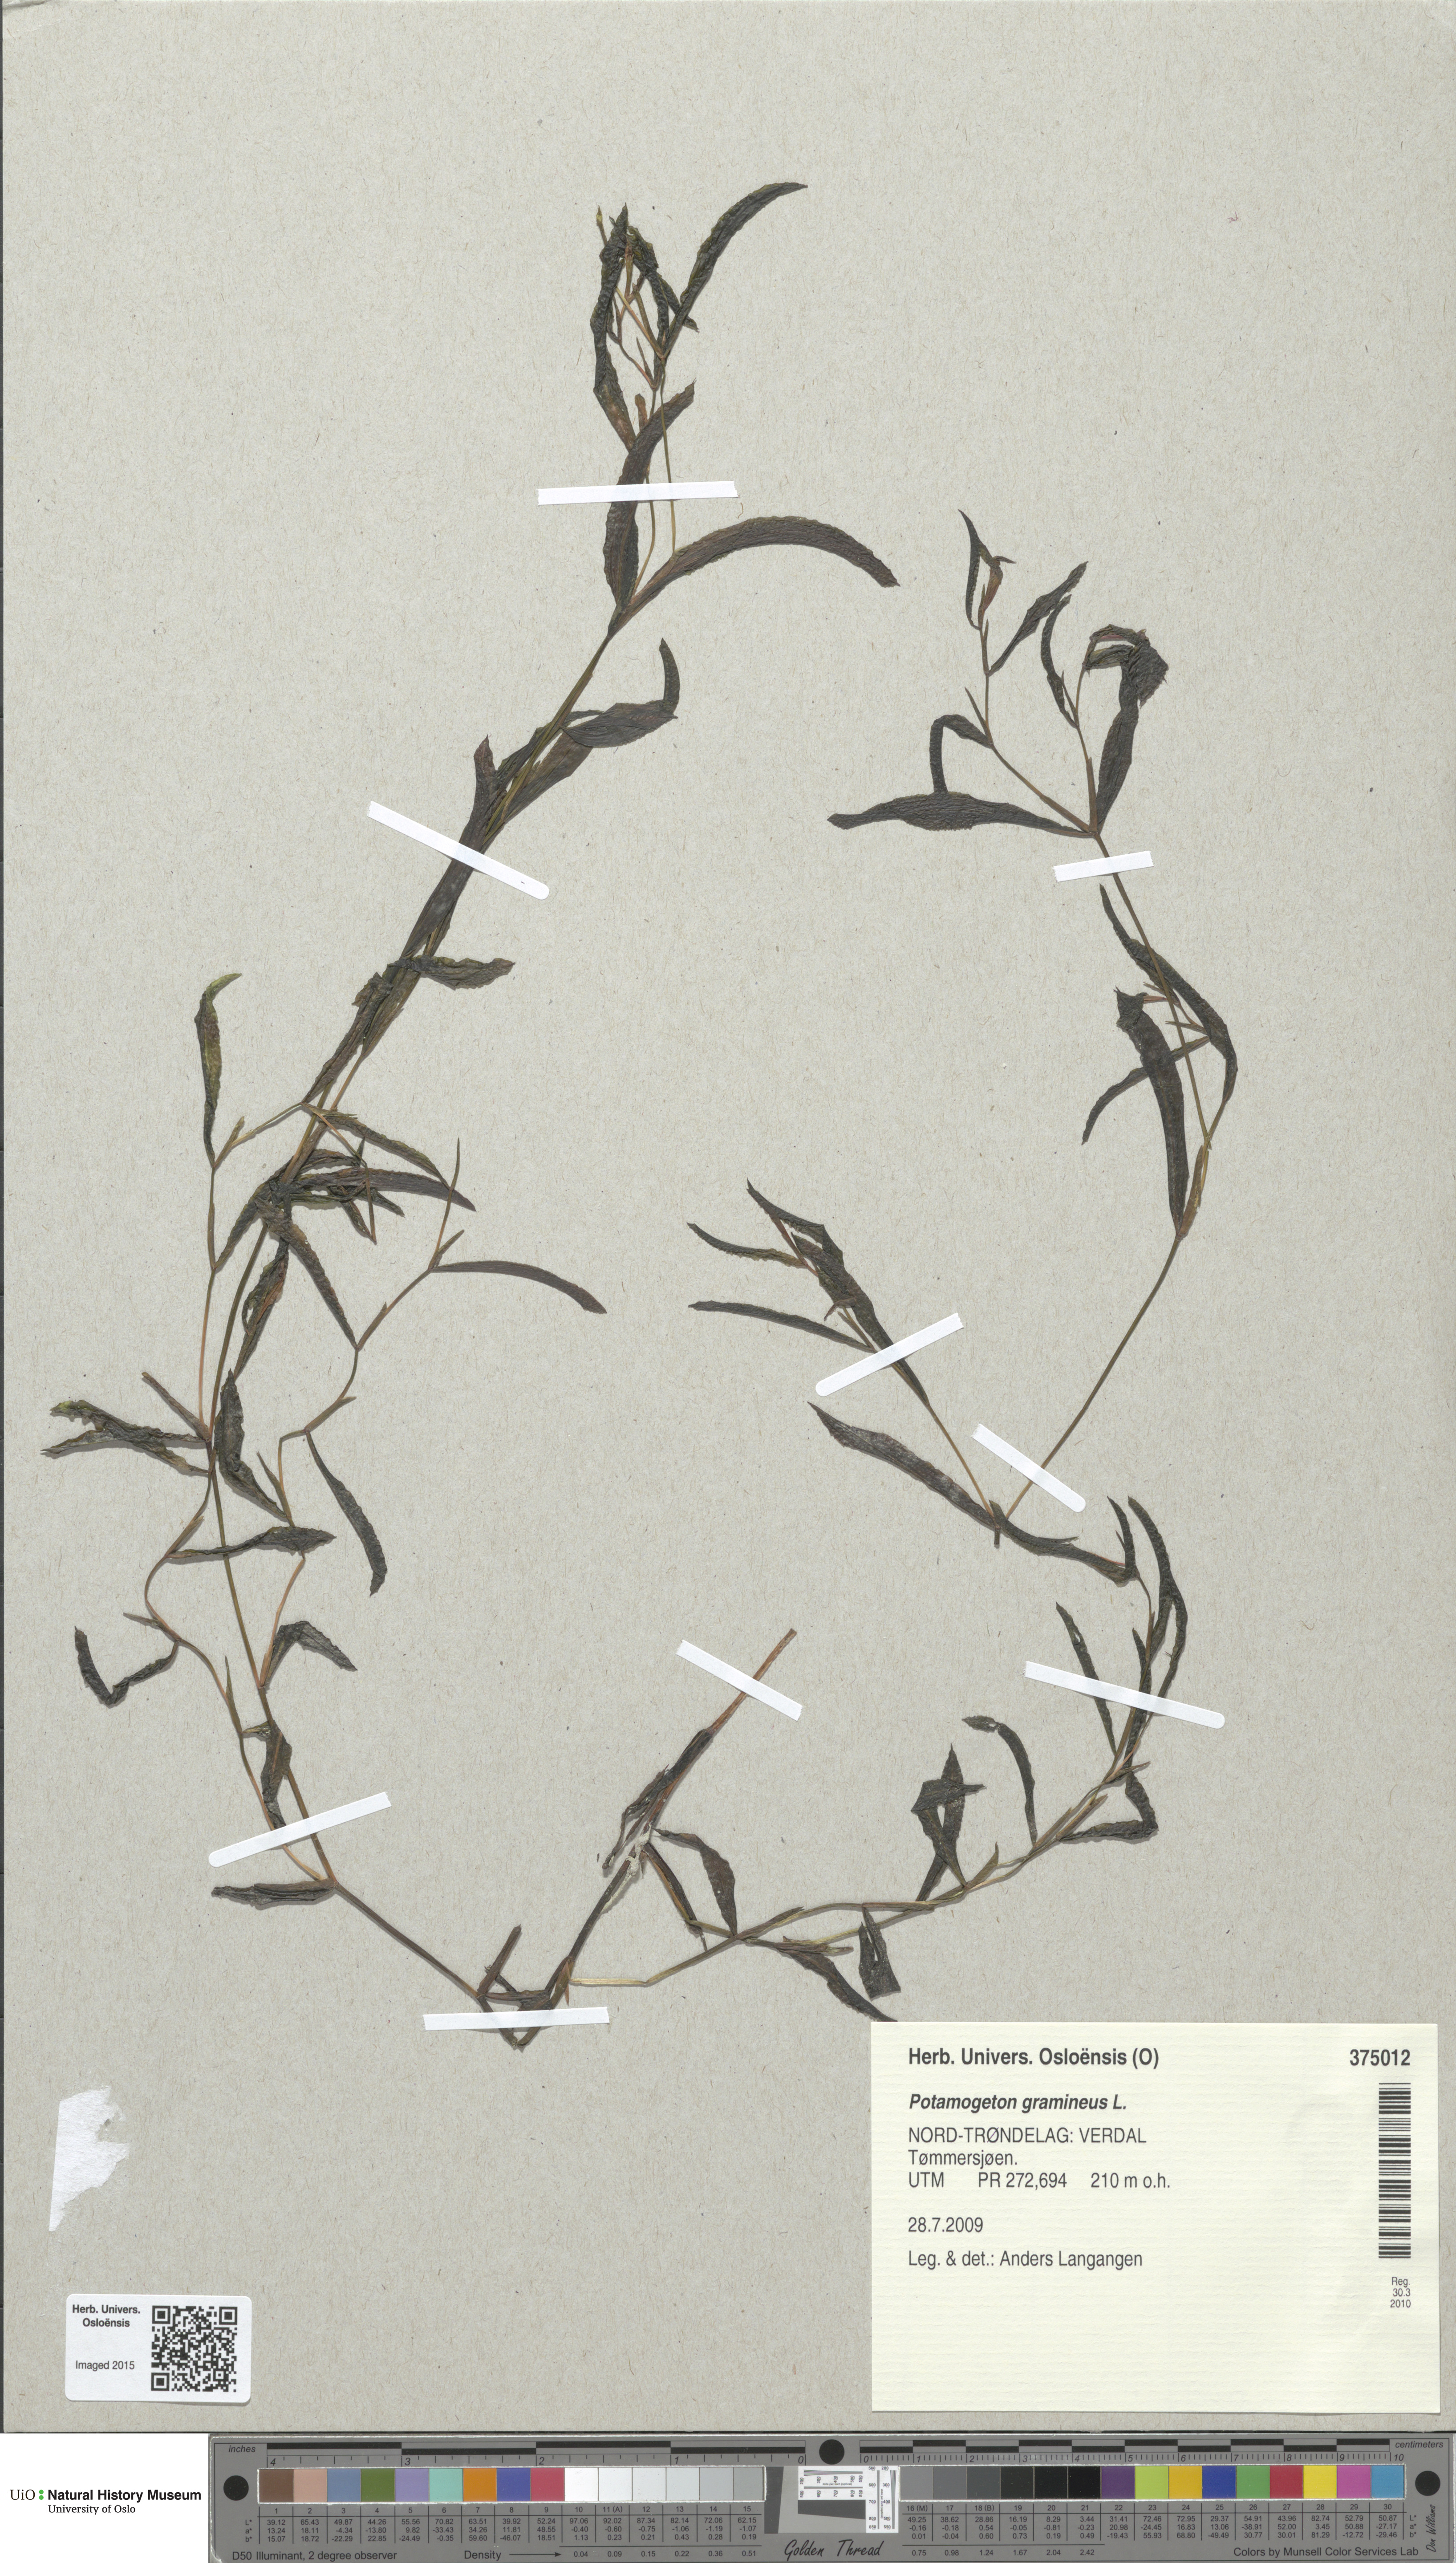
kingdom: Plantae
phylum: Tracheophyta
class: Liliopsida
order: Alismatales
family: Potamogetonaceae
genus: Potamogeton
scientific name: Potamogeton gramineus
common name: Various-leaved pondweed
